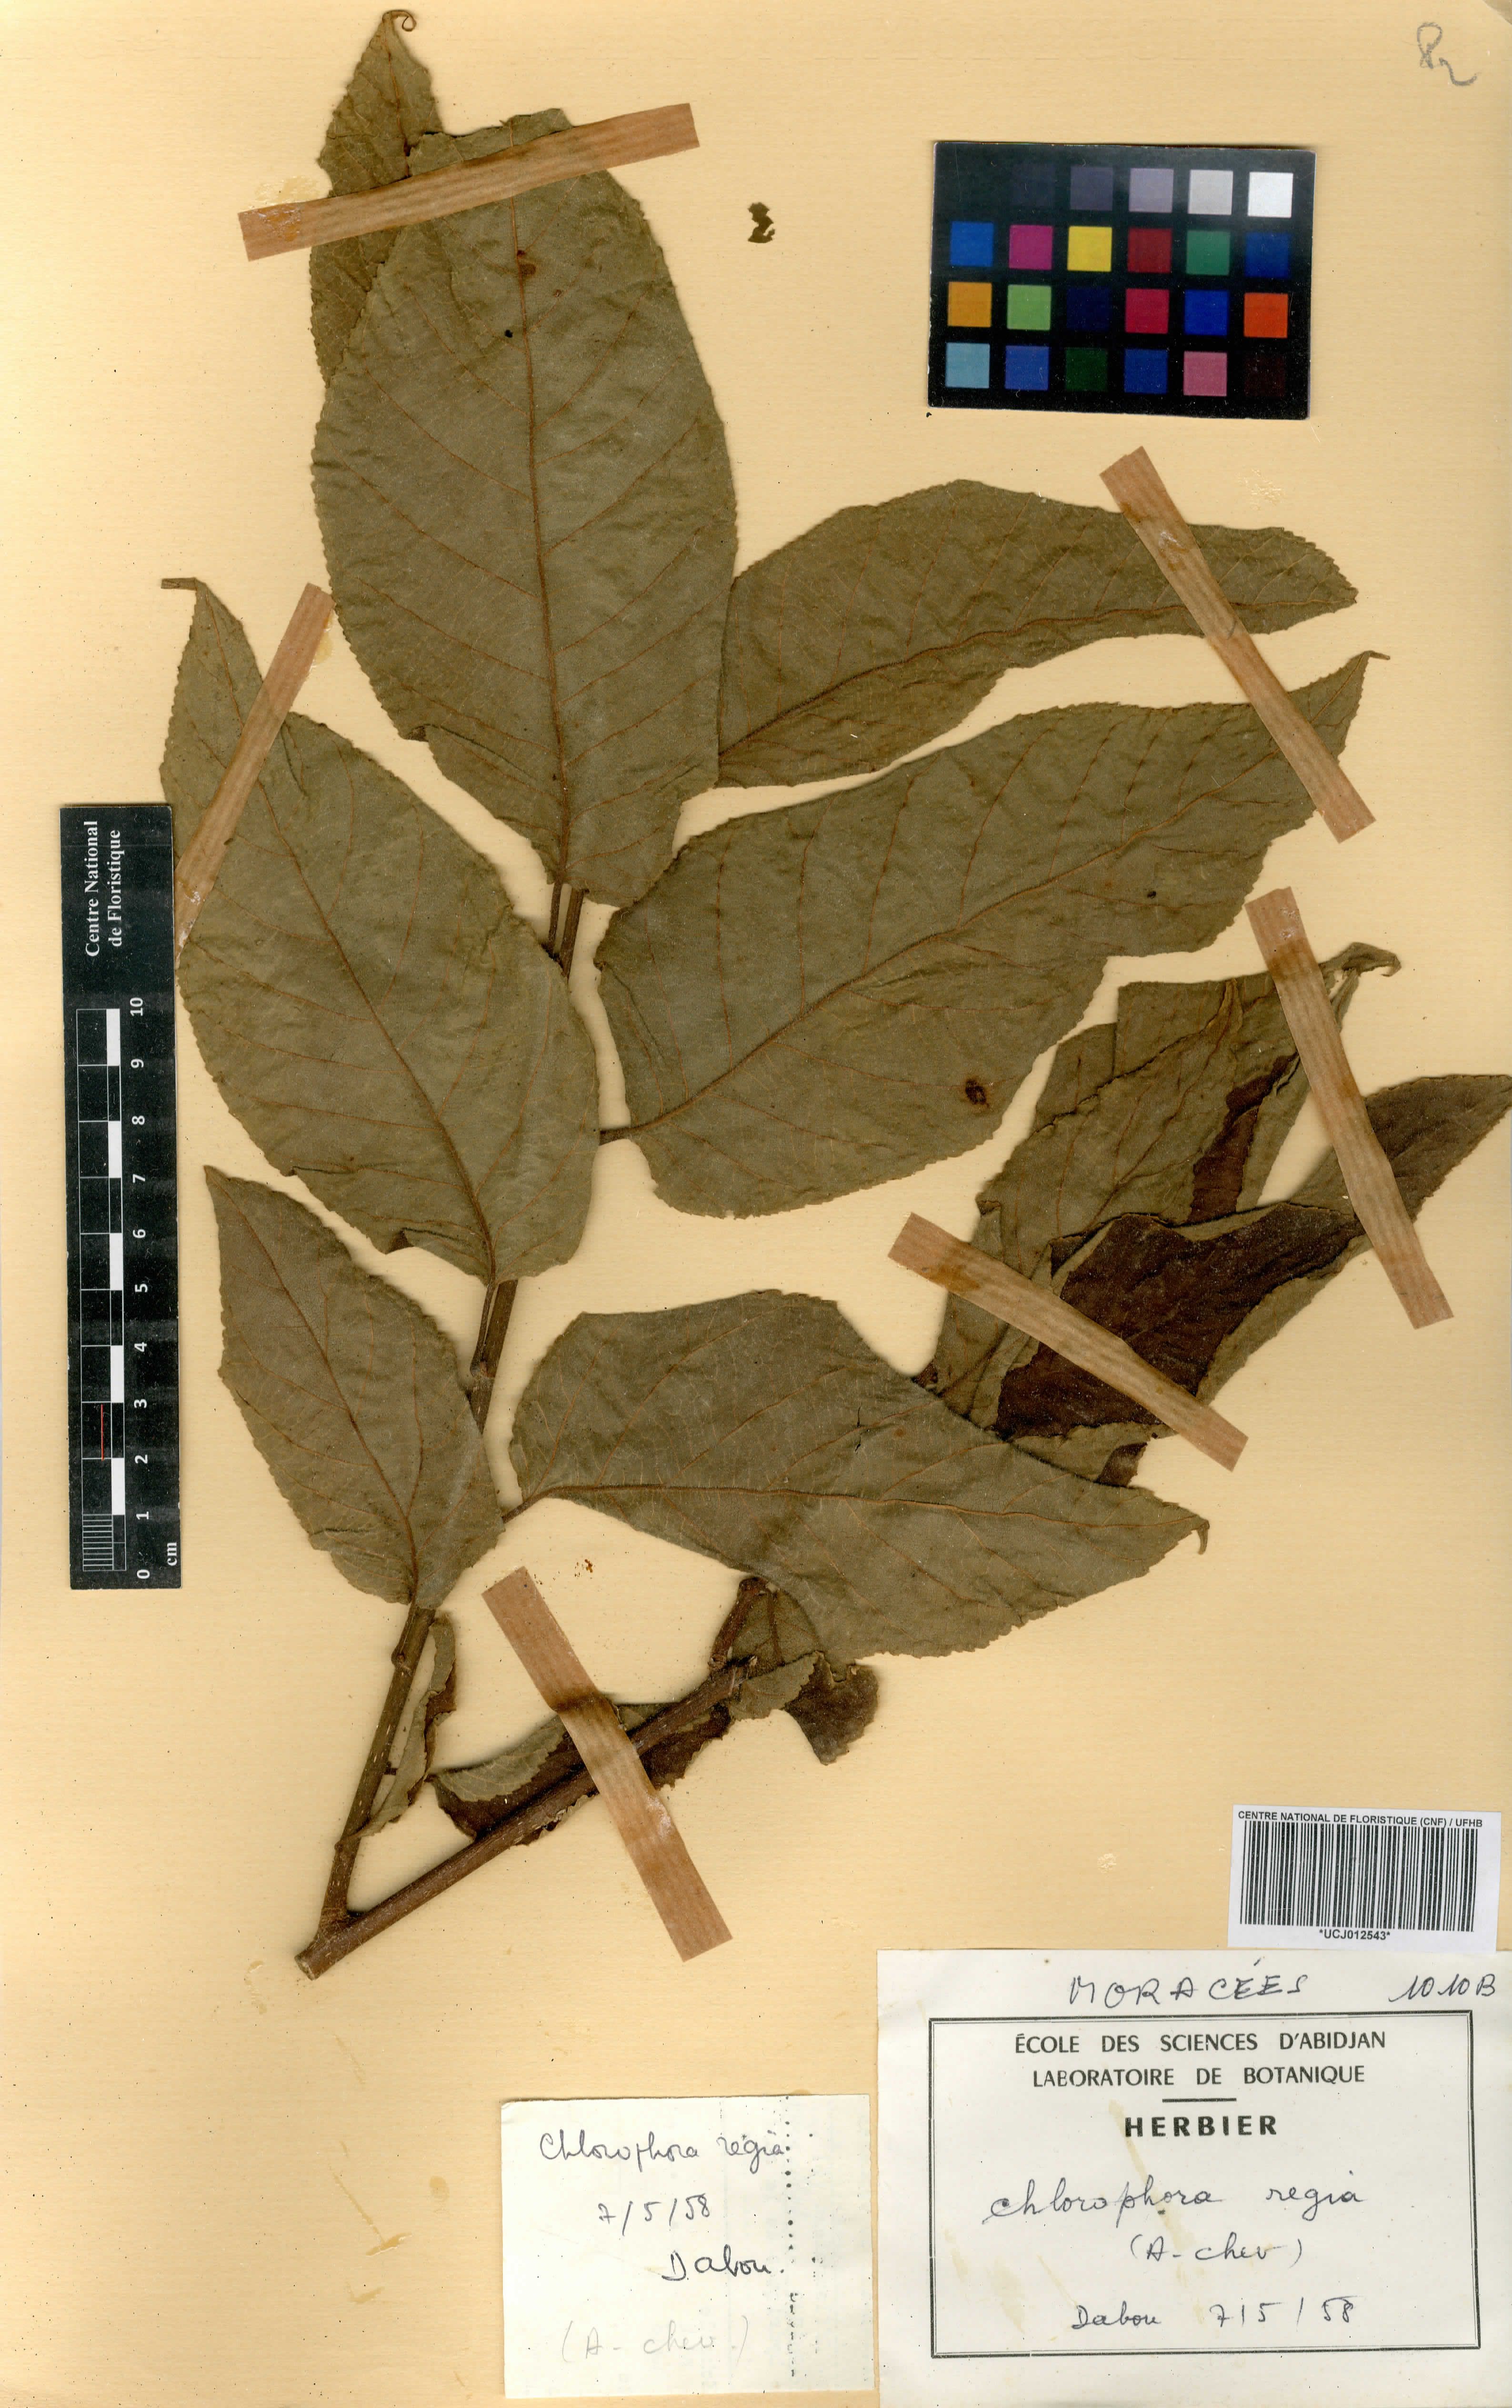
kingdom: Plantae
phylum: Tracheophyta
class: Magnoliopsida
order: Rosales
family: Moraceae
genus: Milicia
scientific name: Milicia regia
